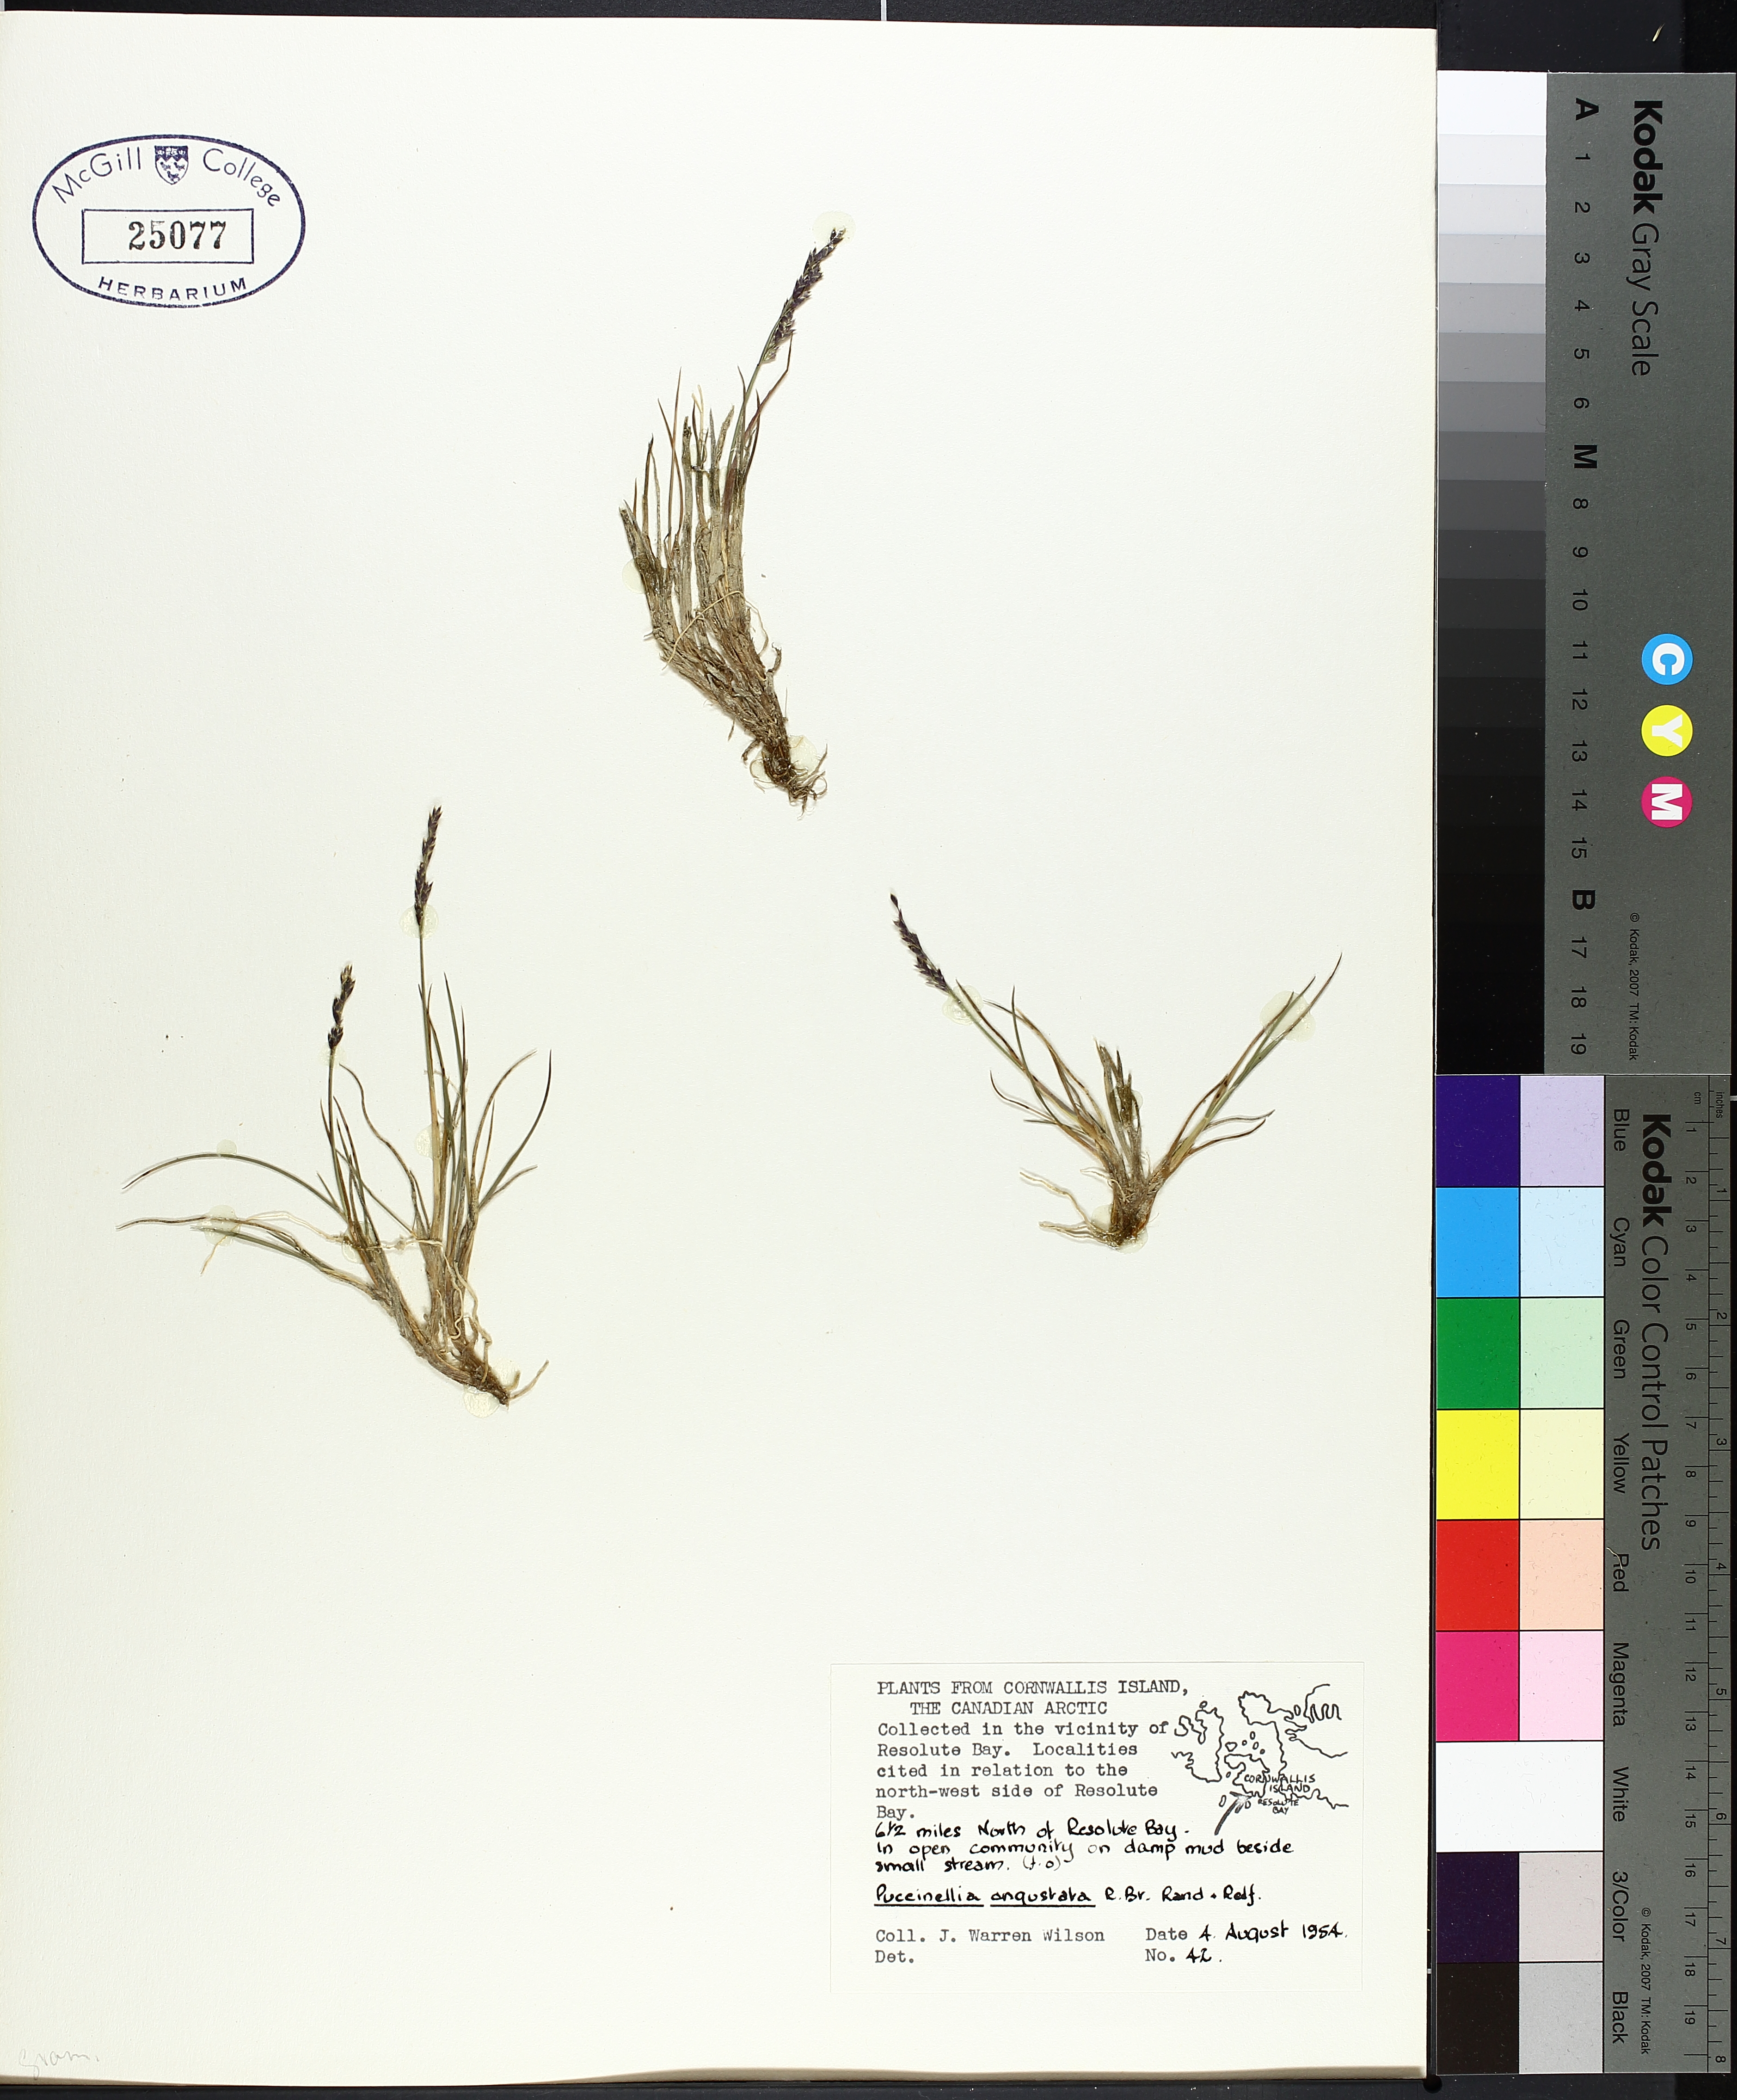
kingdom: Plantae
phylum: Tracheophyta
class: Liliopsida
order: Poales
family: Poaceae
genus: Puccinellia
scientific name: Puccinellia angustata
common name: Narrow alkaligrass
